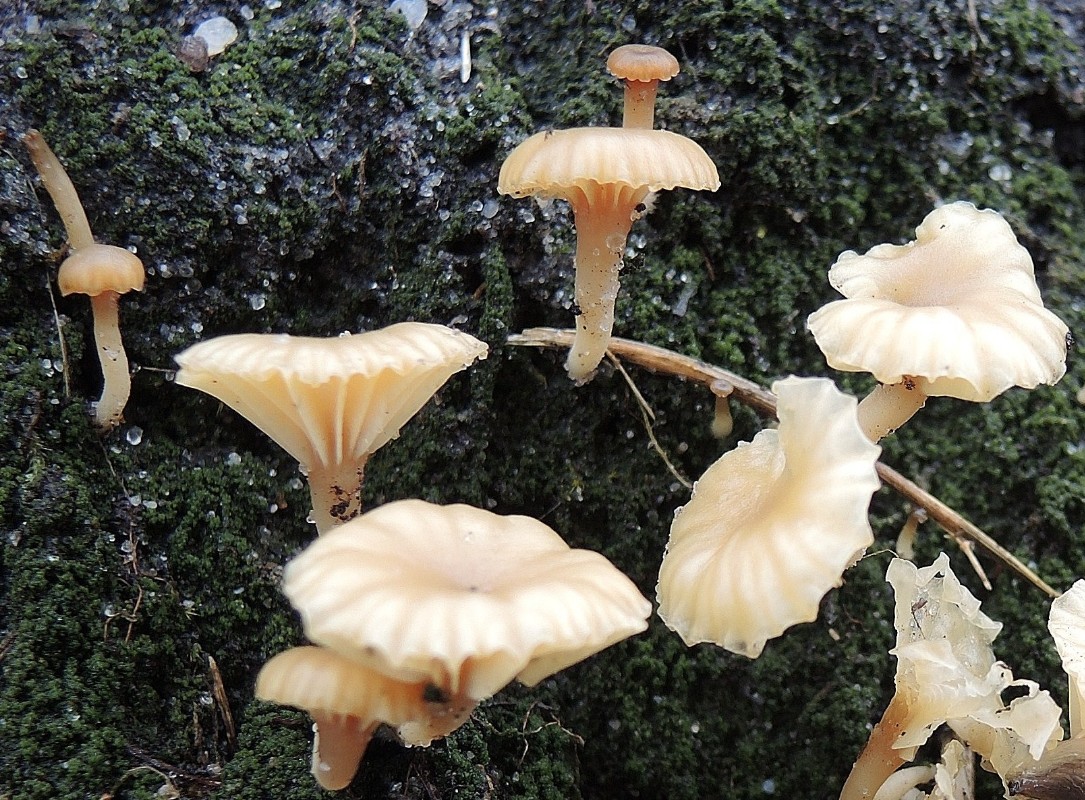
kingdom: Fungi
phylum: Basidiomycota
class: Agaricomycetes
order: Agaricales
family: Hygrophoraceae
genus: Lichenomphalia
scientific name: Lichenomphalia umbellifera
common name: tørve-lavhat
